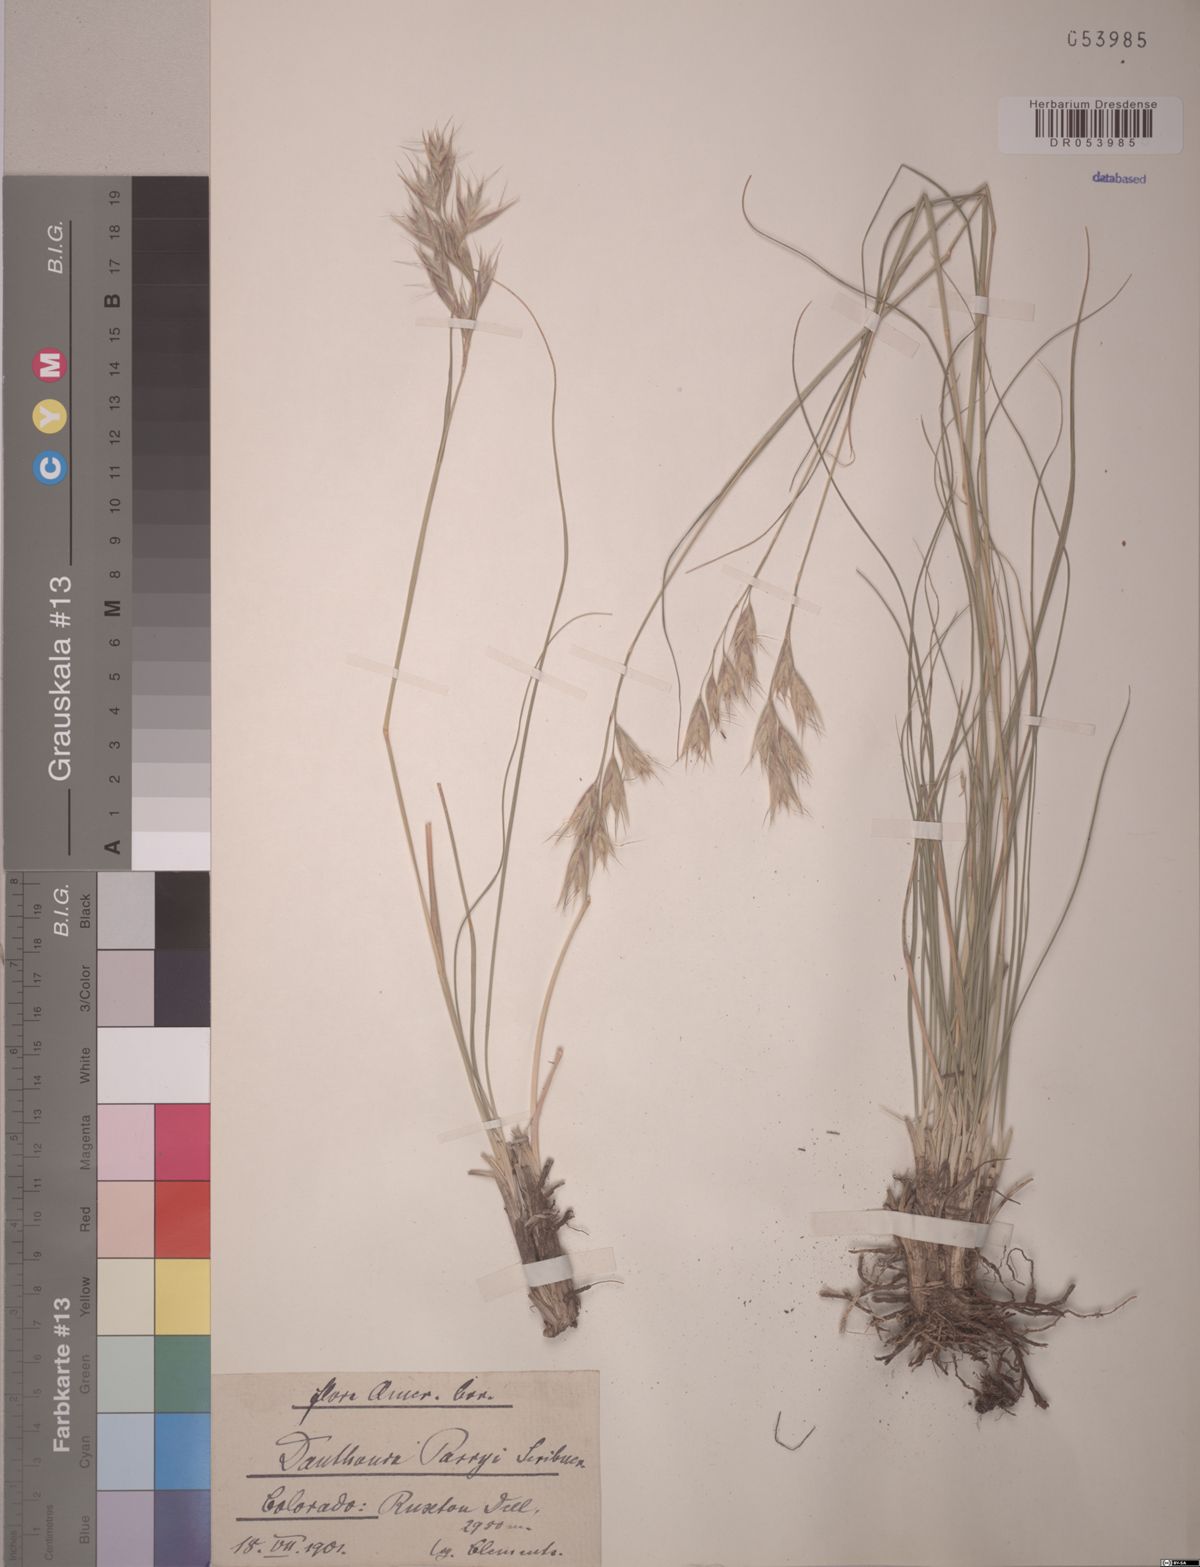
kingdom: Plantae
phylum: Tracheophyta
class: Liliopsida
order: Poales
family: Poaceae
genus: Danthonia
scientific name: Danthonia parryi
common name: Parry's oat grass
